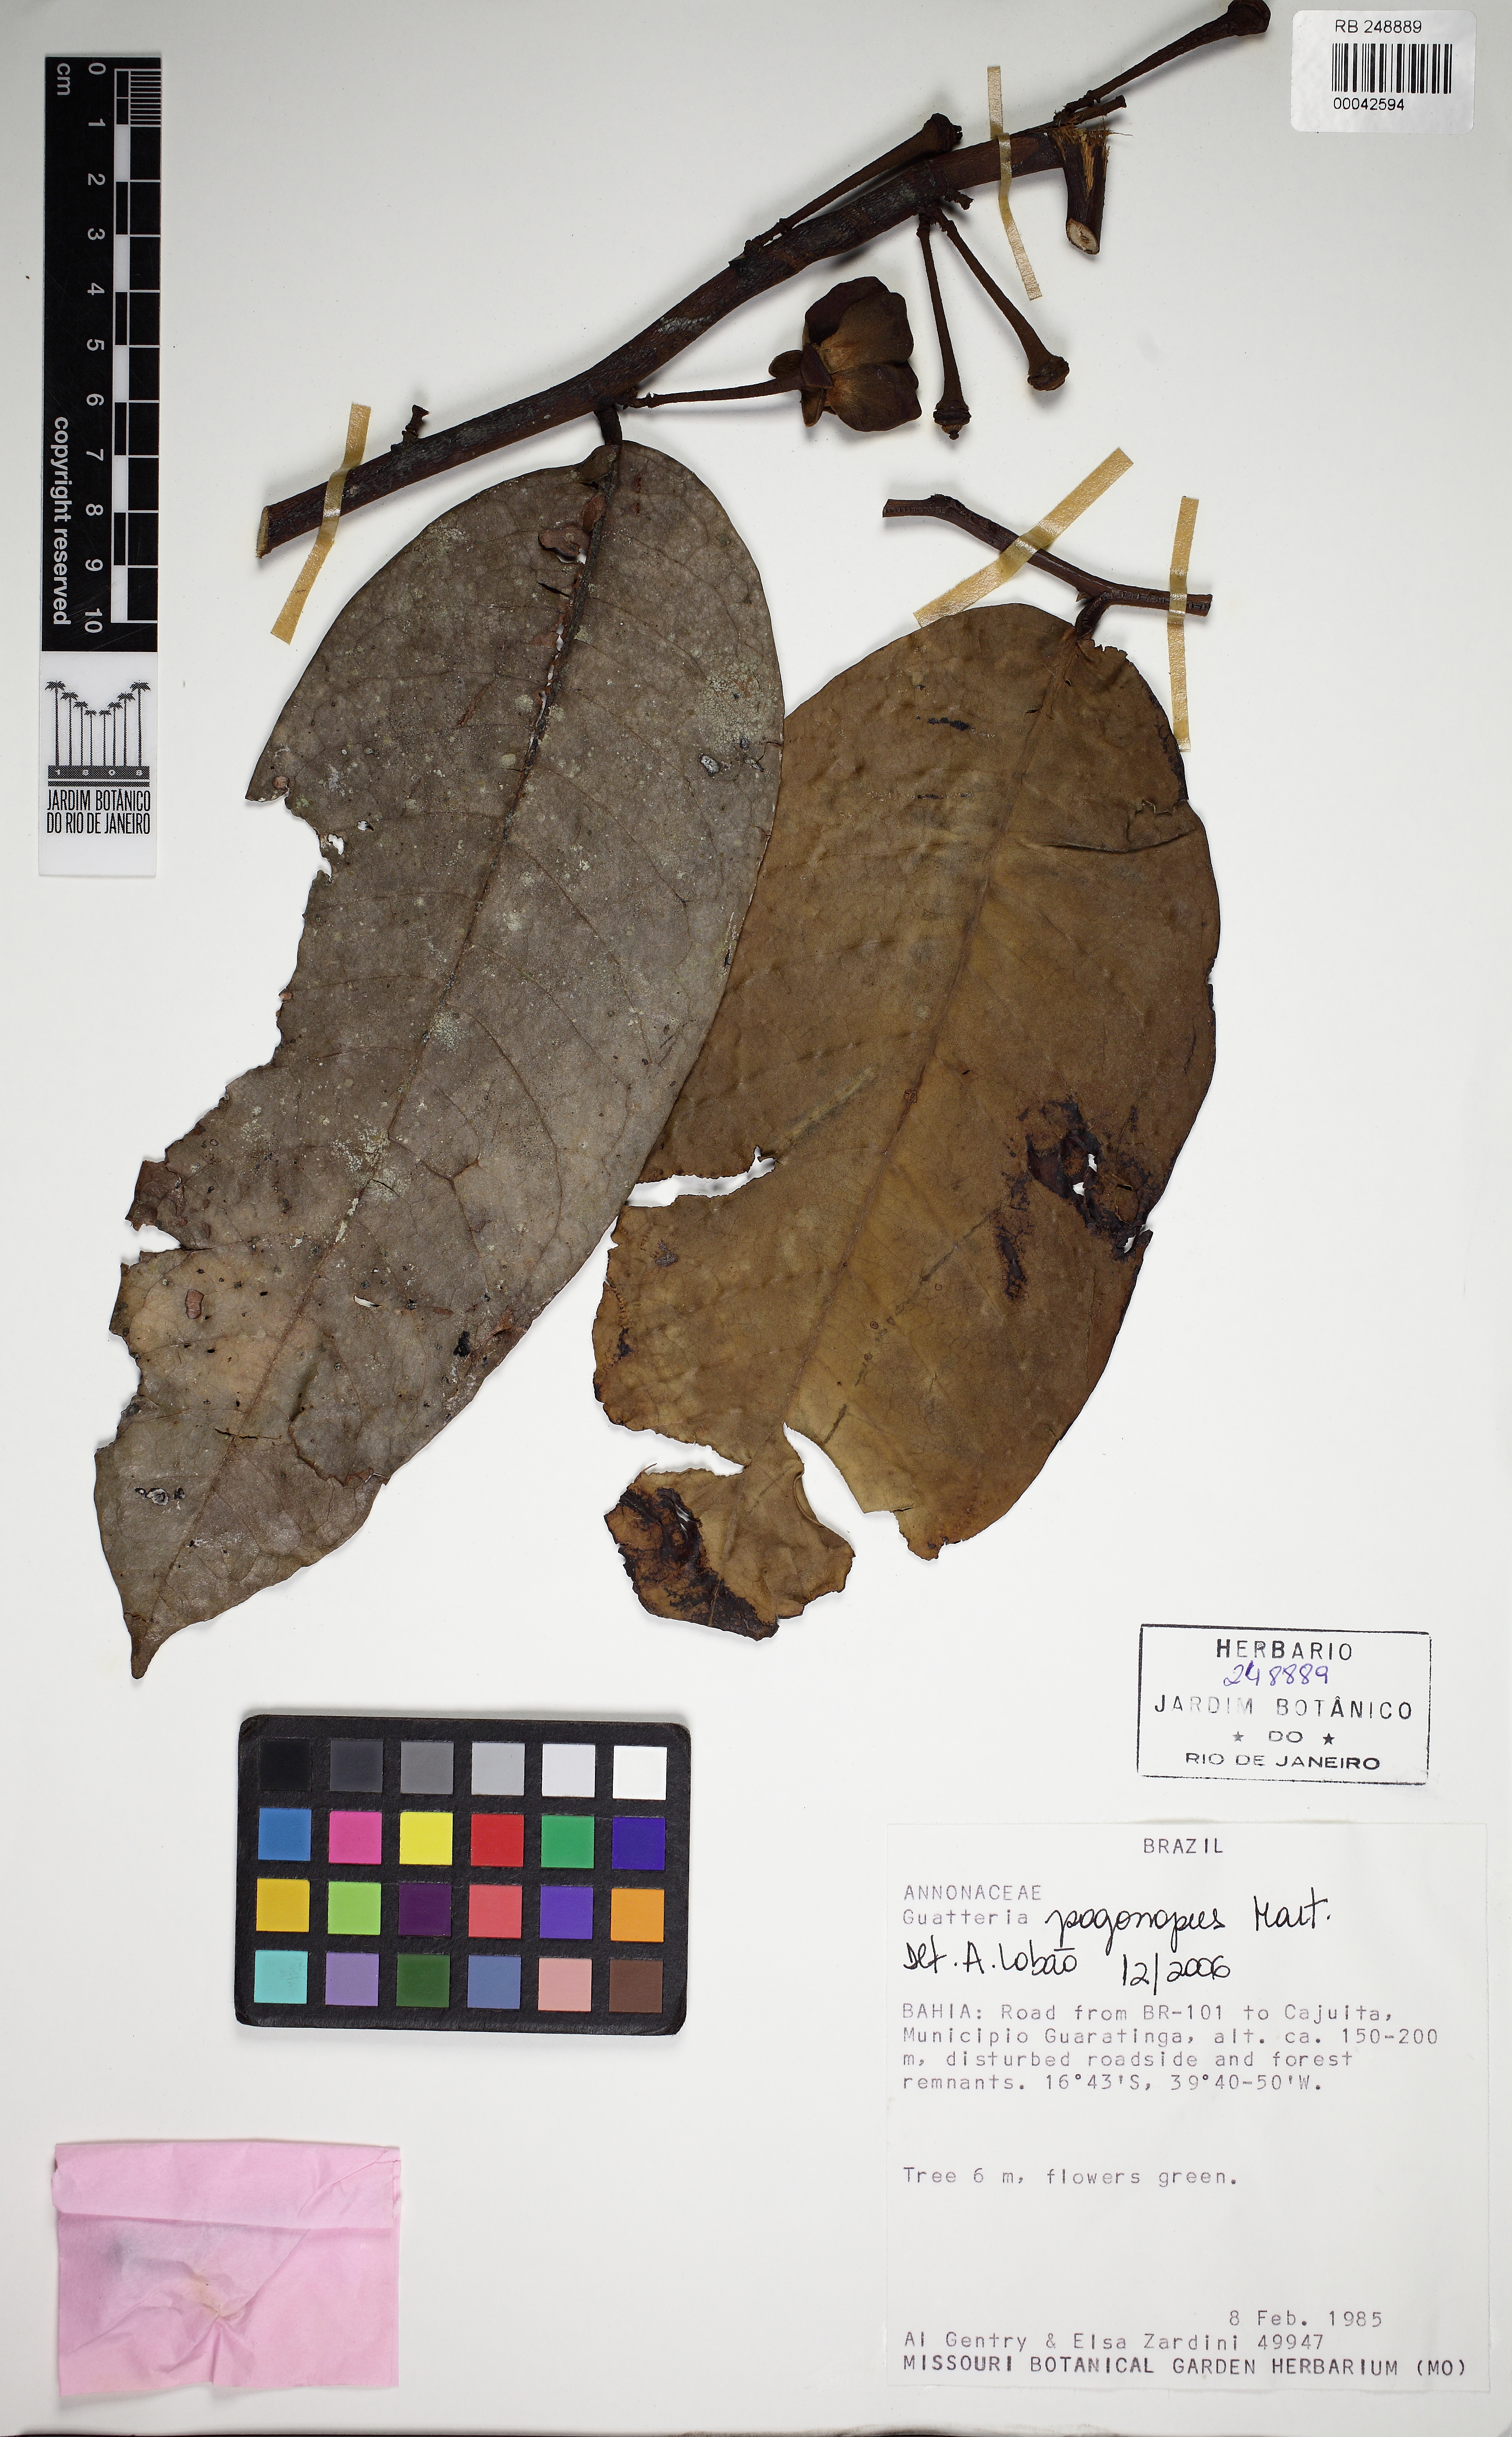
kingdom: Plantae
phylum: Tracheophyta
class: Magnoliopsida
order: Magnoliales
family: Annonaceae
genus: Guatteria
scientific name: Guatteria pogonopus
